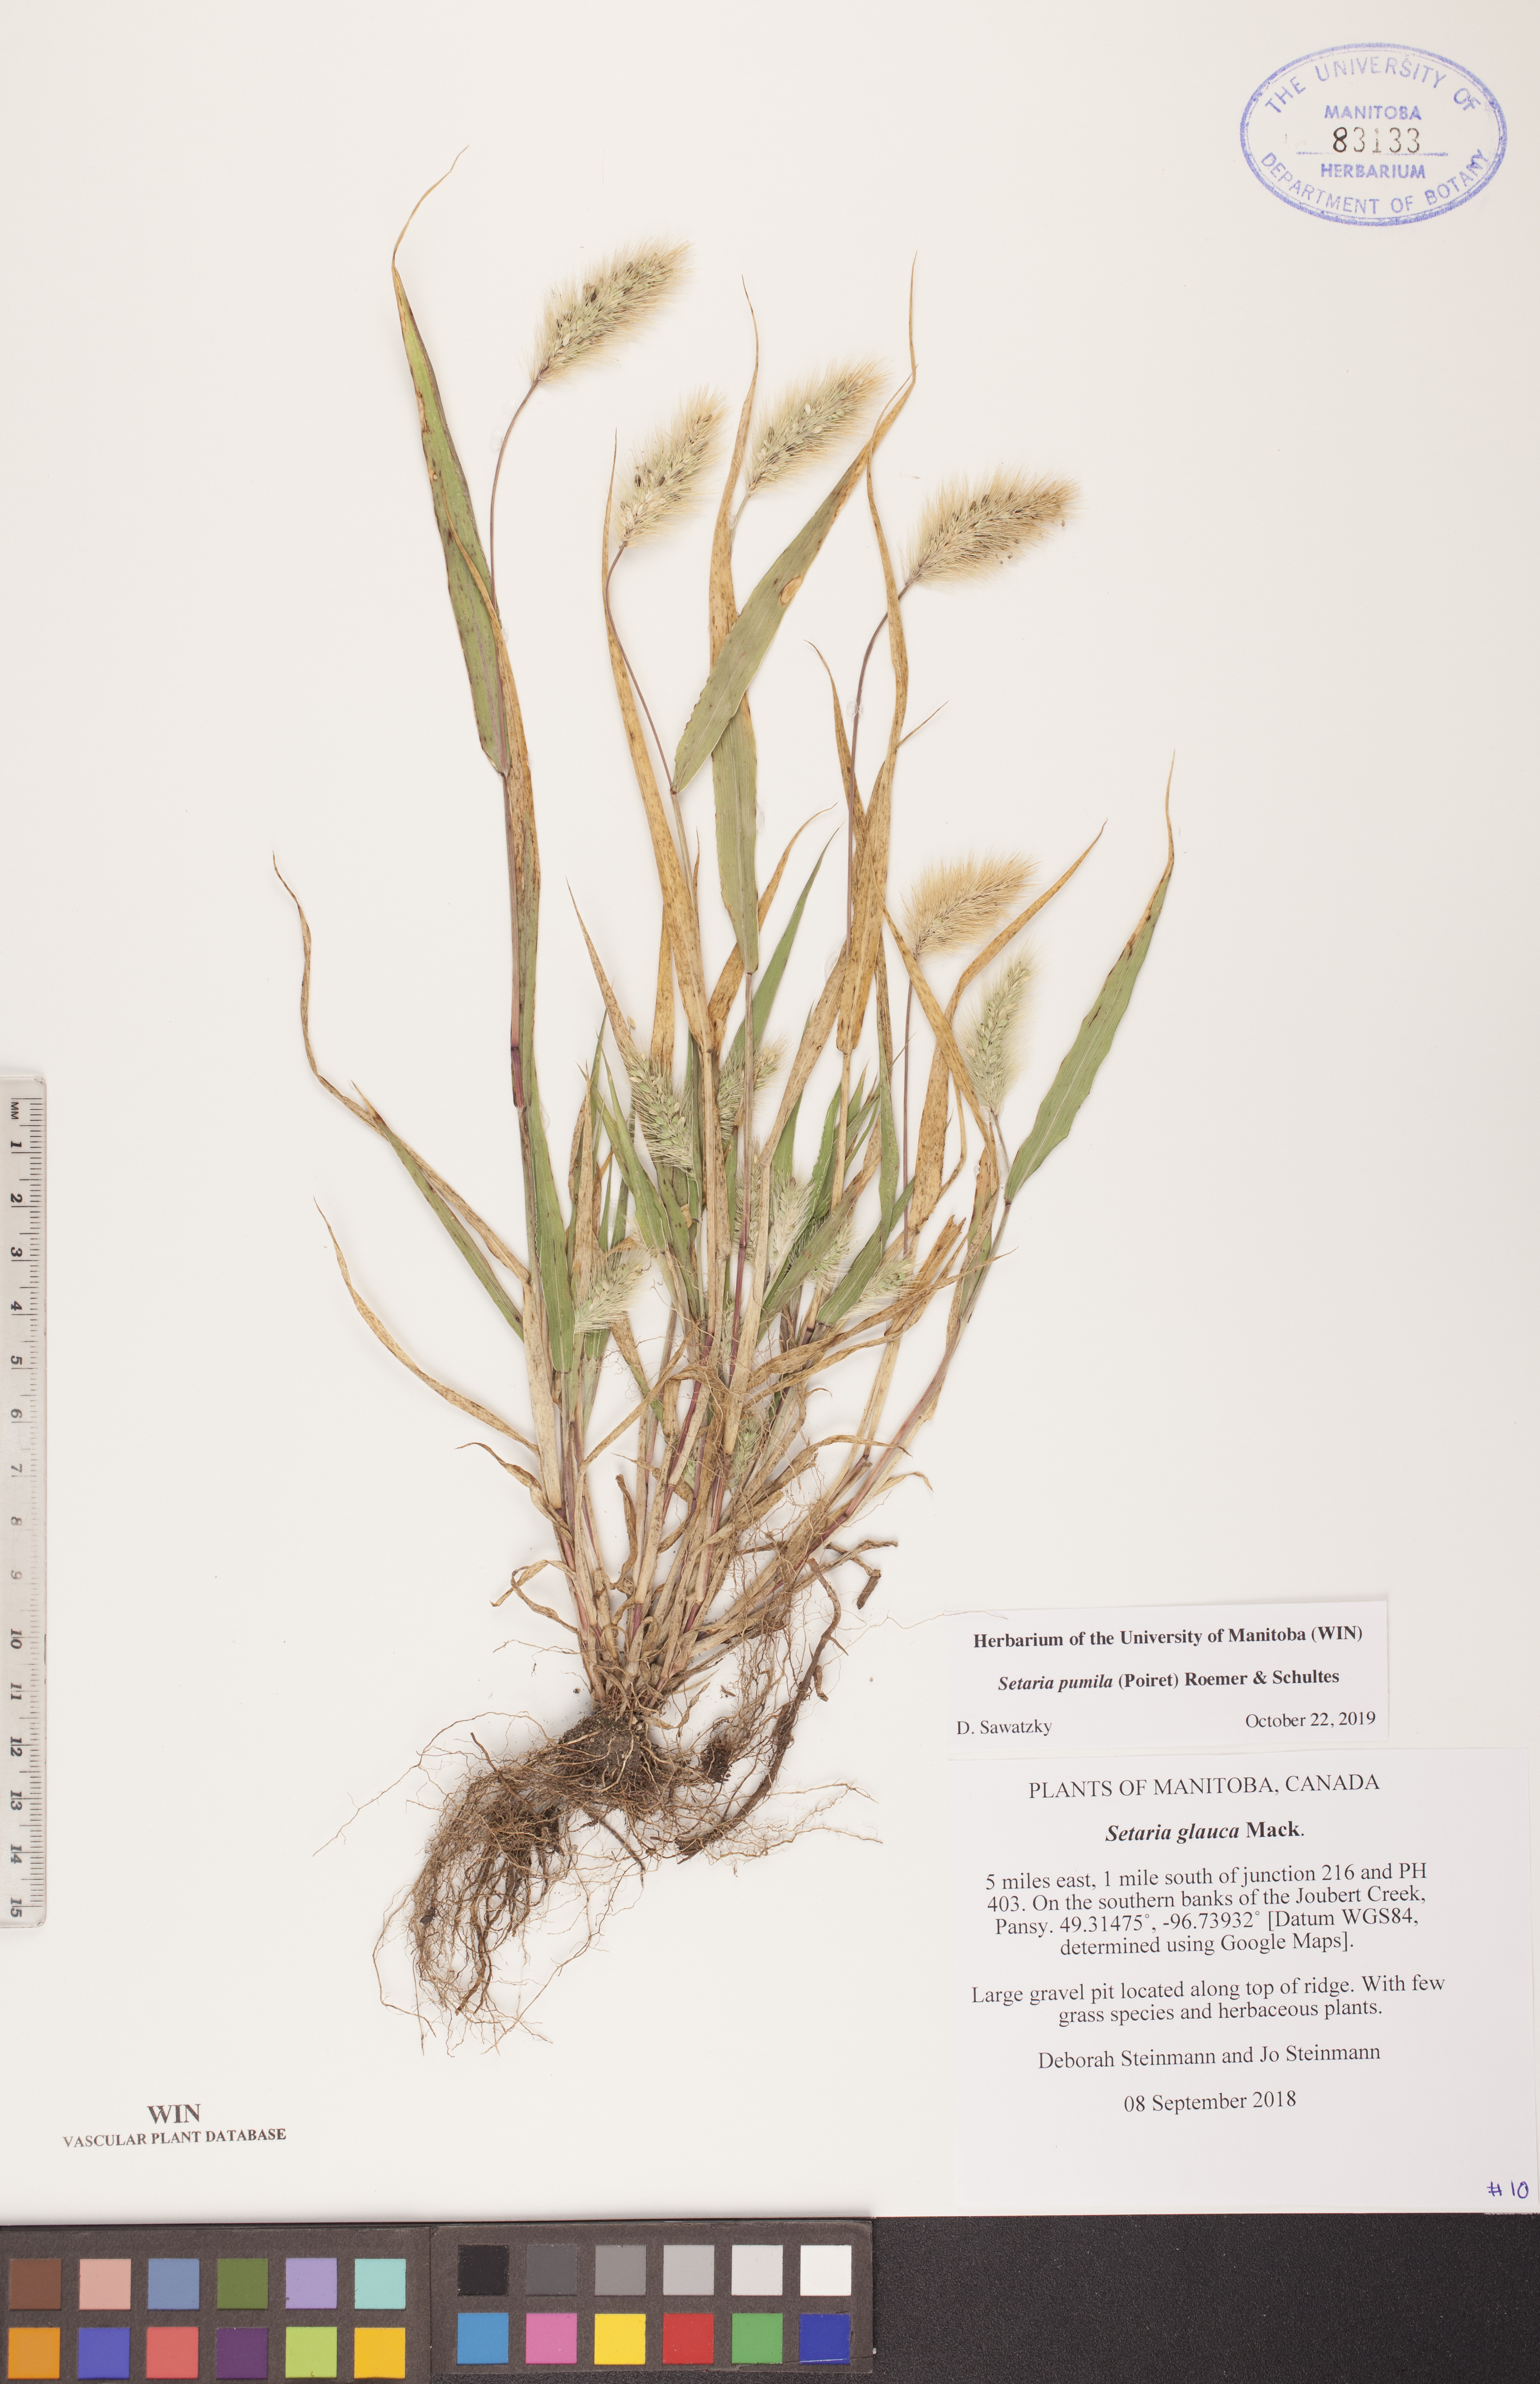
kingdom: Plantae
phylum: Tracheophyta
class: Liliopsida
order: Poales
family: Poaceae
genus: Setaria
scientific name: Setaria pumila
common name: Yellow bristle-grass
